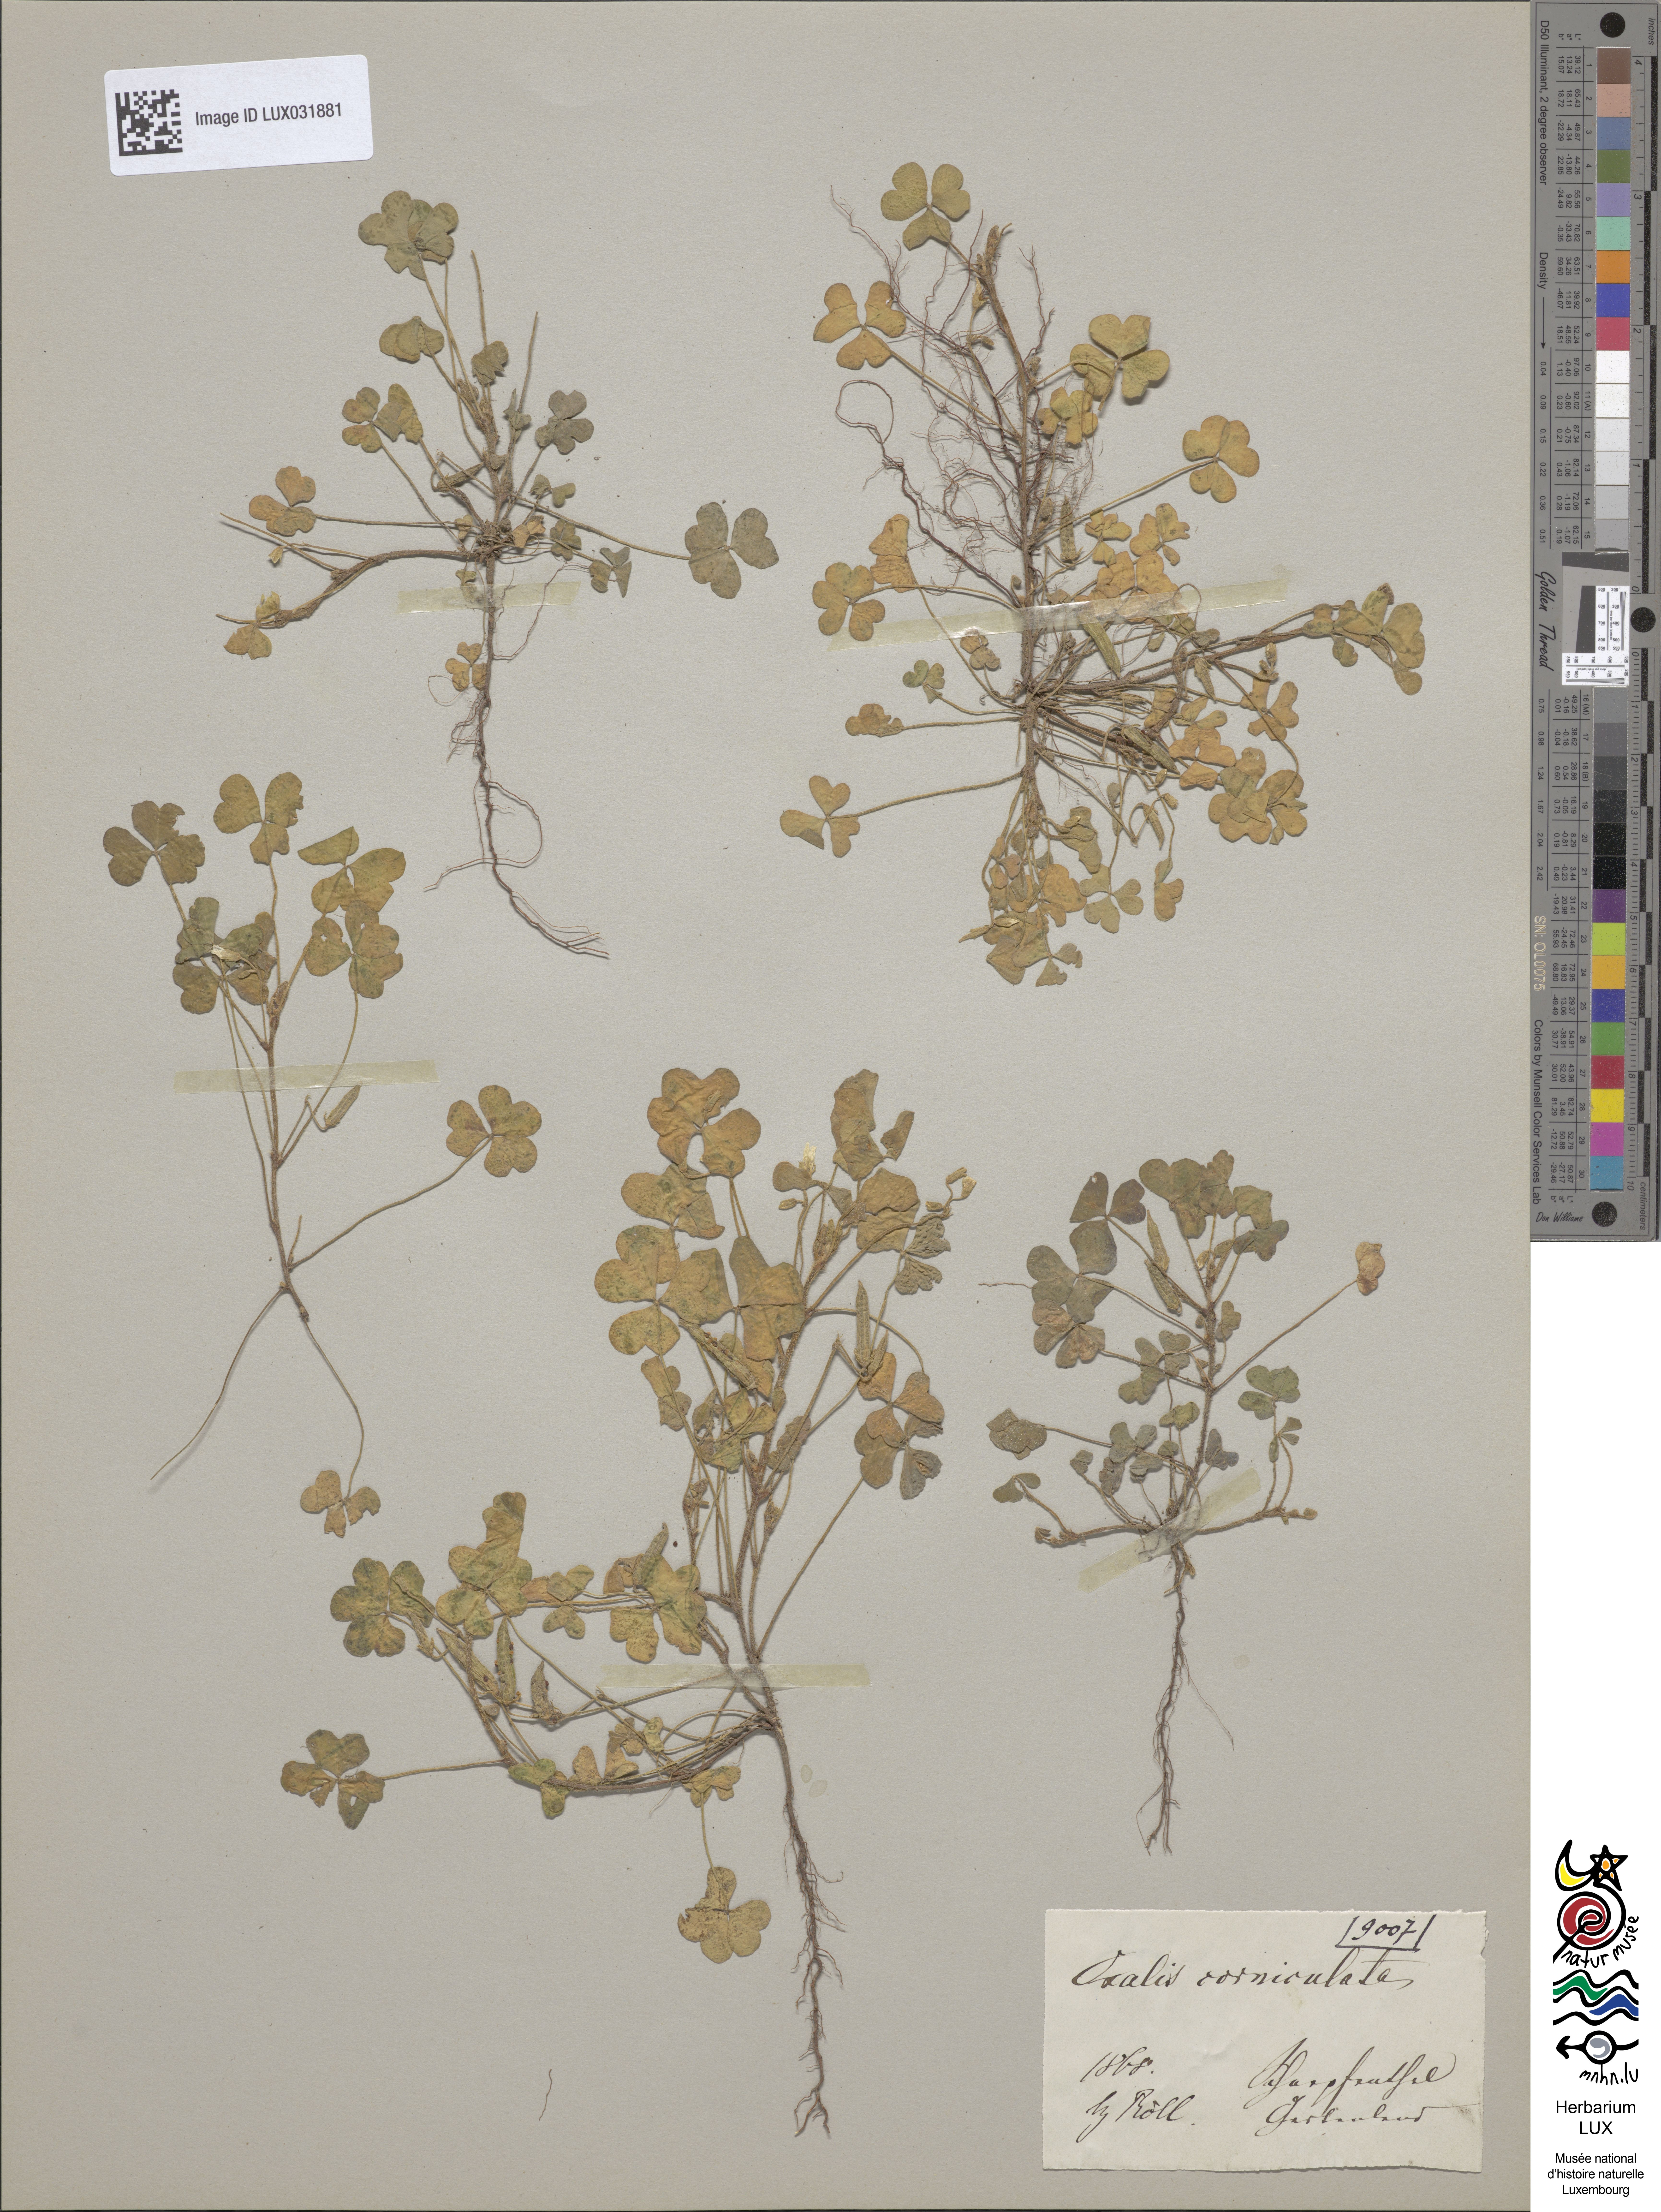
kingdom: Plantae
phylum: Tracheophyta
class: Magnoliopsida
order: Oxalidales
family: Oxalidaceae
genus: Oxalis
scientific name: Oxalis corniculata
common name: Procumbent yellow-sorrel
